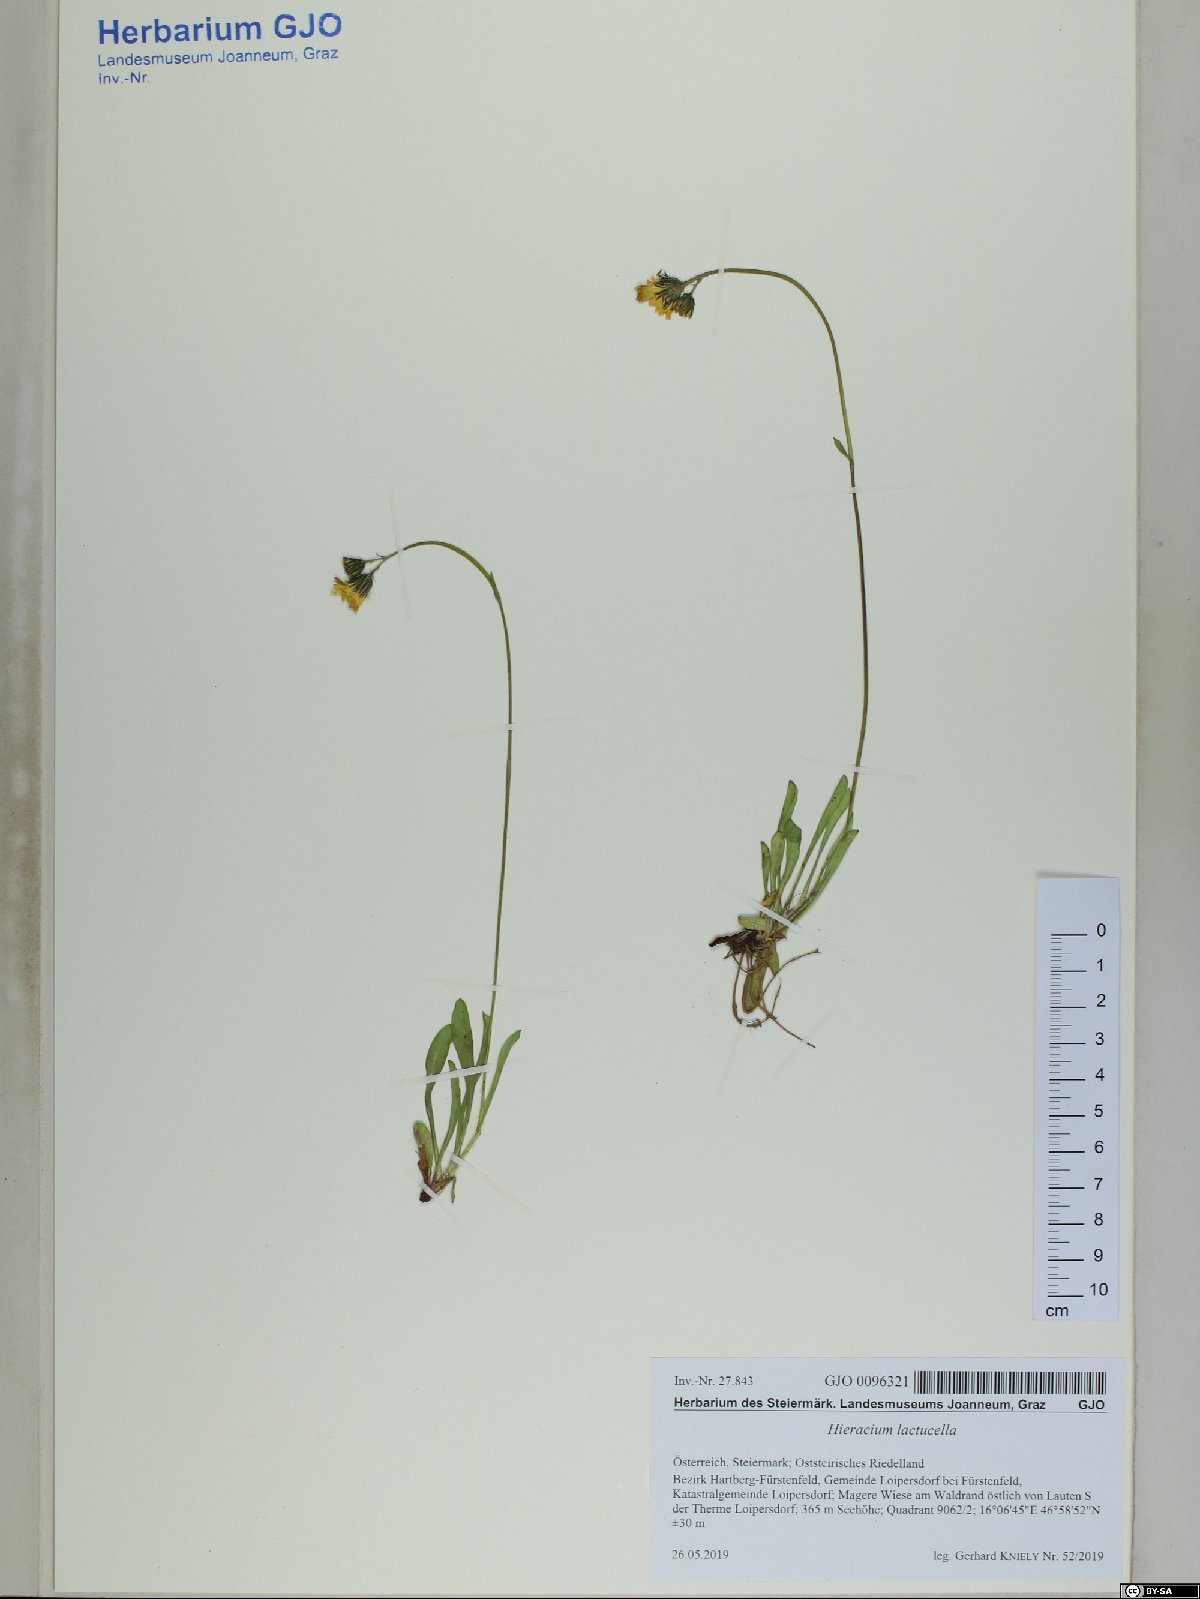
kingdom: Plantae
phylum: Tracheophyta
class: Magnoliopsida
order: Asterales
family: Asteraceae
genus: Pilosella
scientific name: Pilosella lactucella
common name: Glaucous fox-and-cubs
